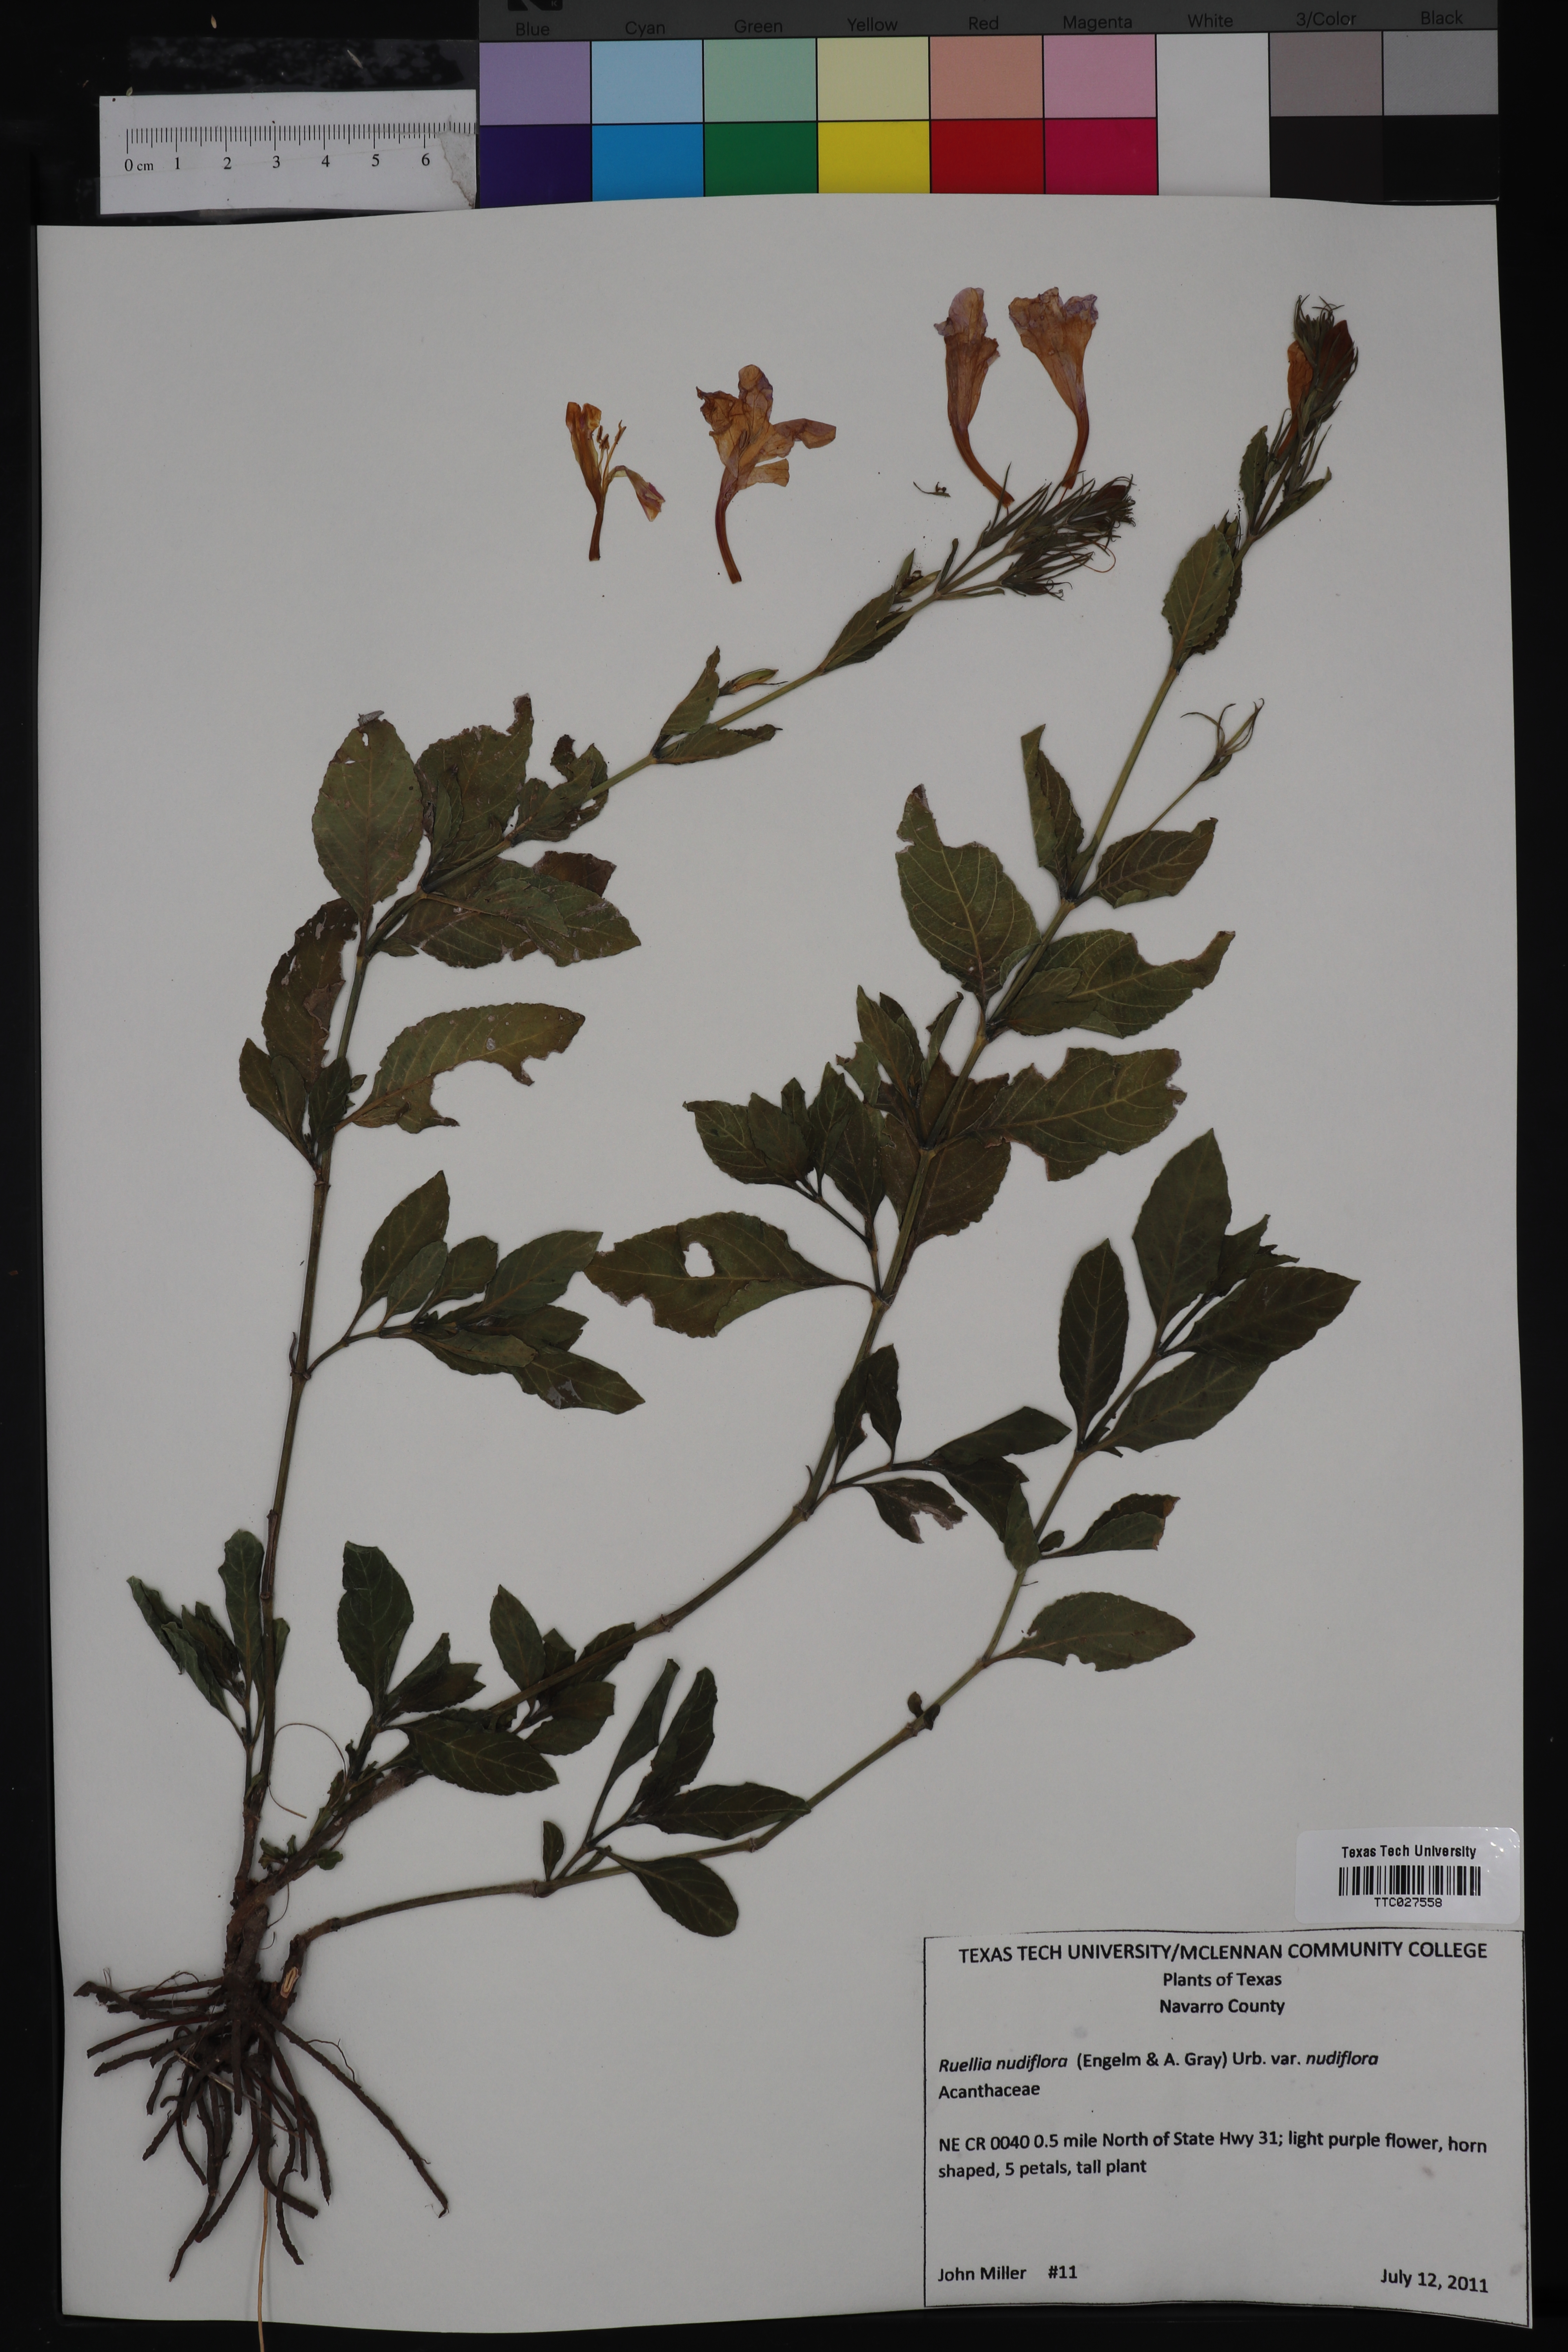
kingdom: Plantae
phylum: Tracheophyta
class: Magnoliopsida
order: Lamiales
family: Acanthaceae
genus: Ruellia
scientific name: Ruellia ciliatiflora
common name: Hairyflower wild petunia
